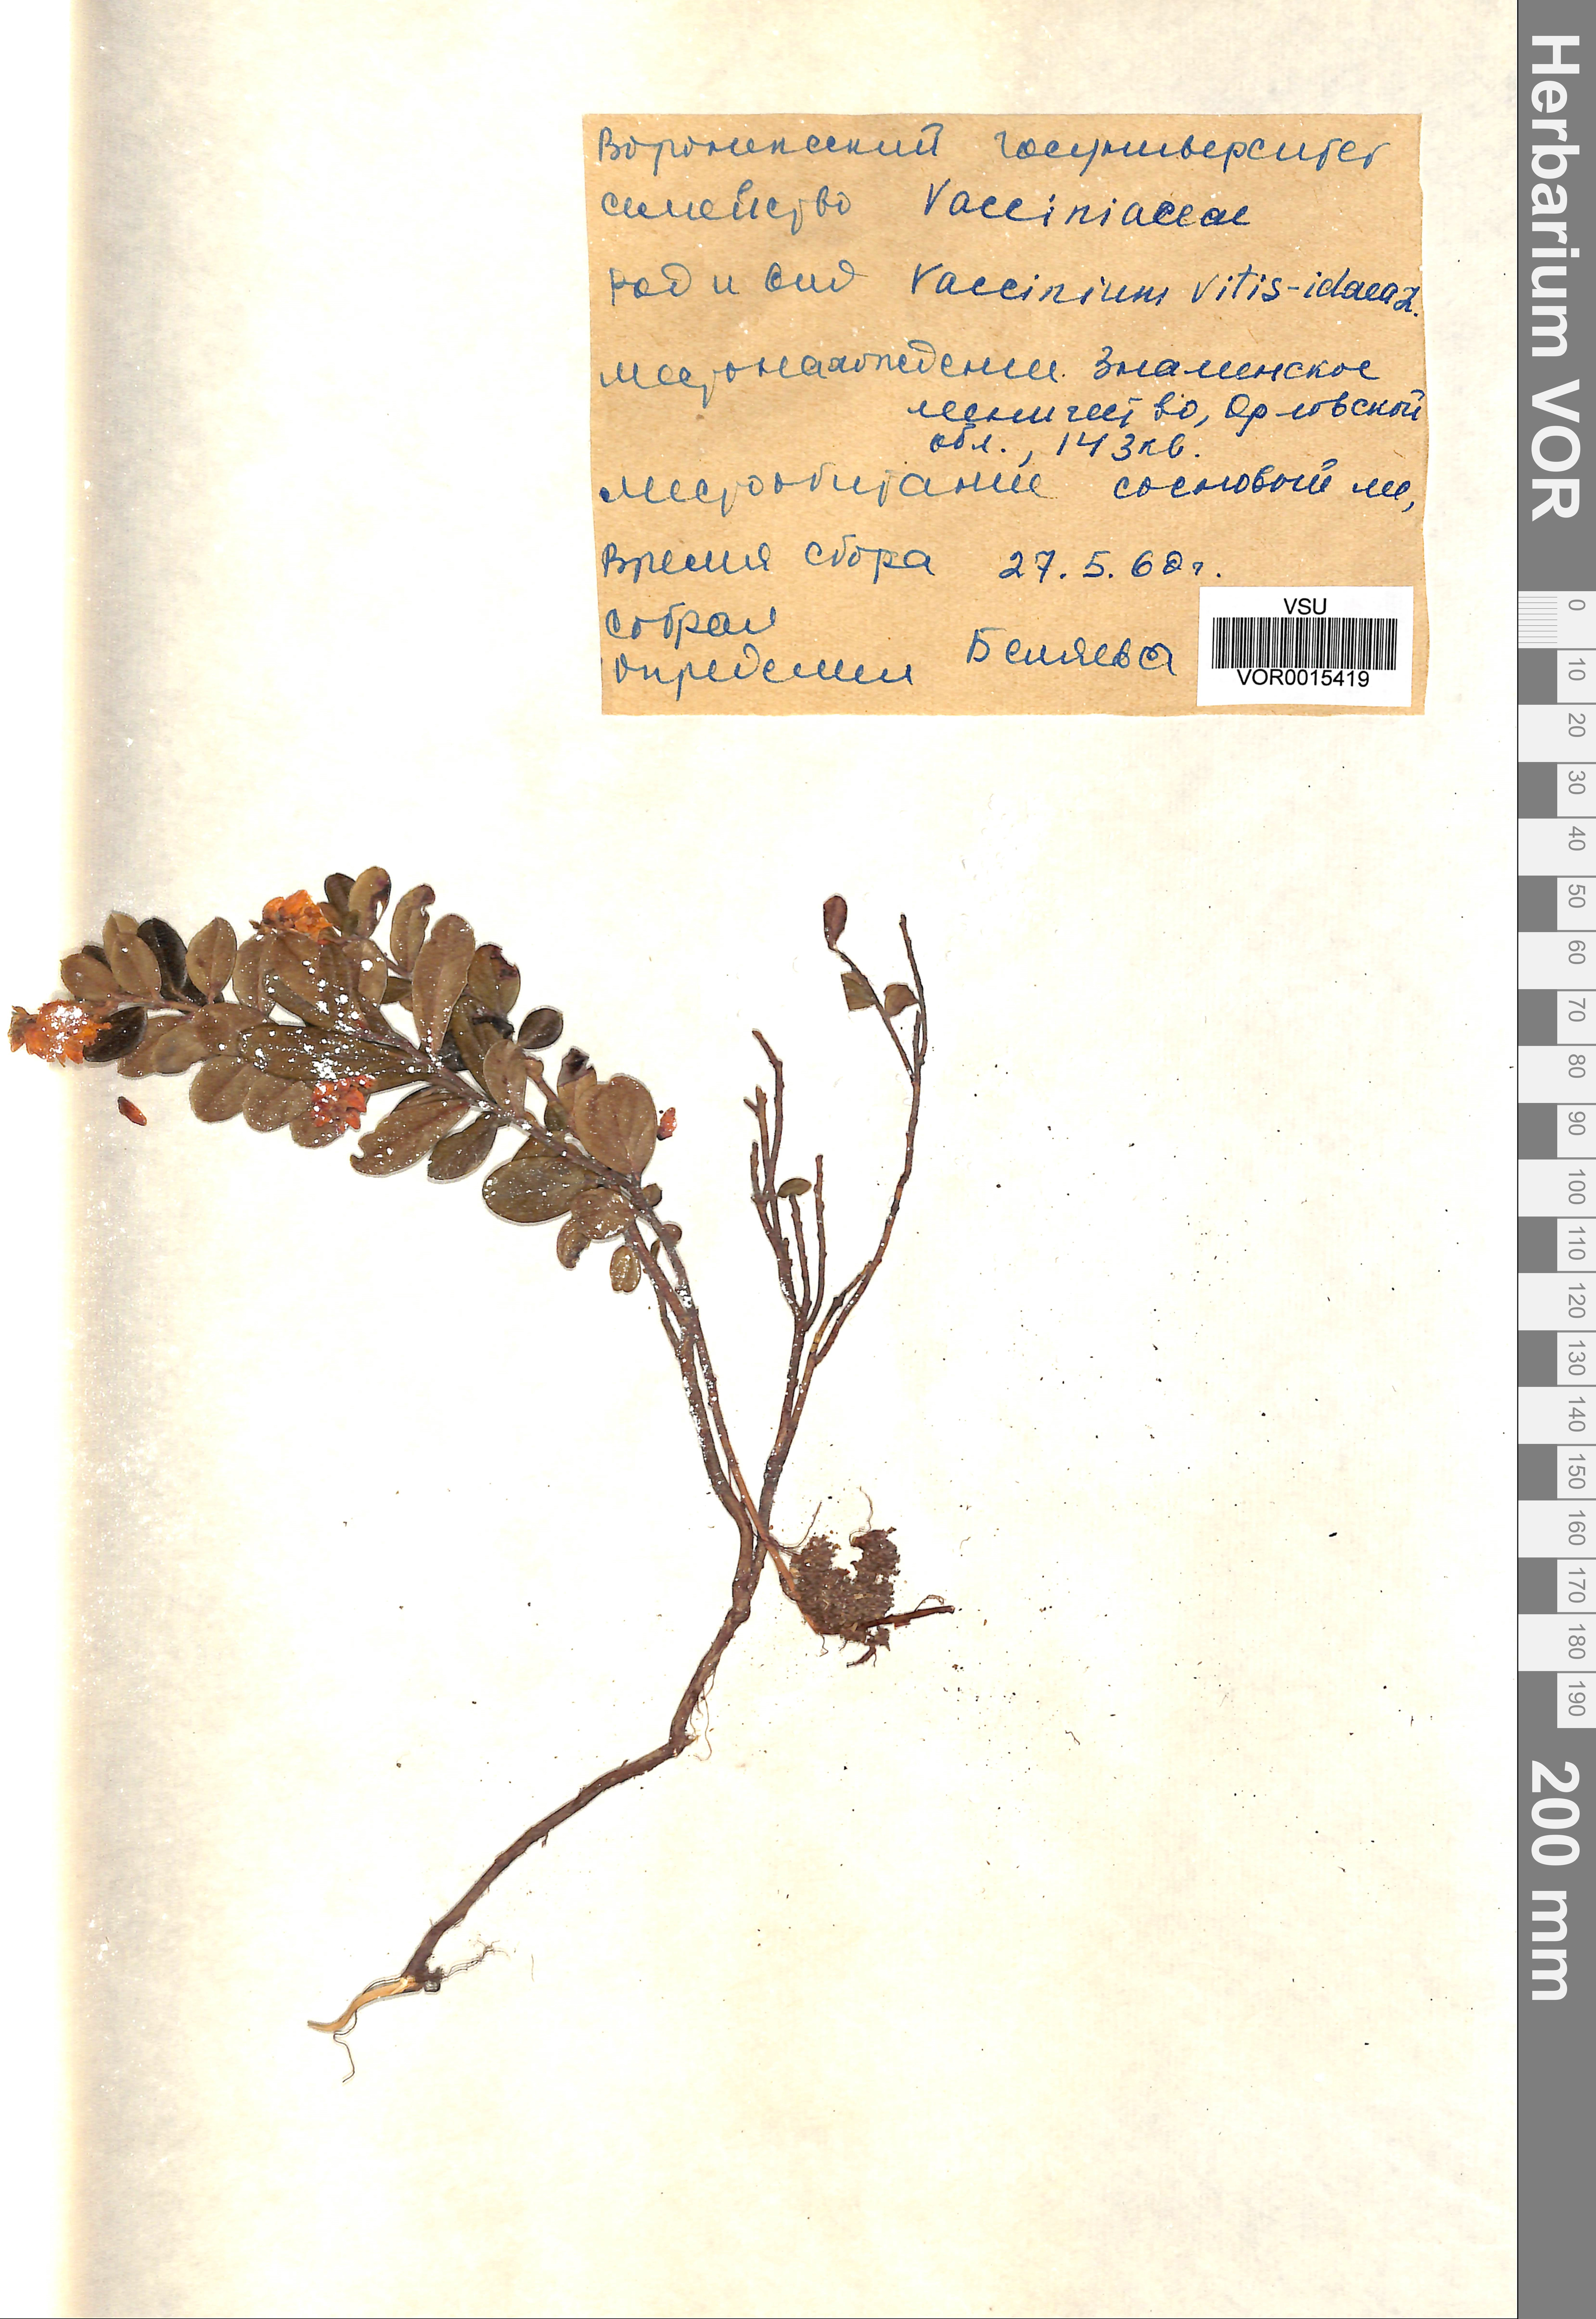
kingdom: Plantae
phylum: Tracheophyta
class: Magnoliopsida
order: Ericales
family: Ericaceae
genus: Vaccinium
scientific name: Vaccinium vitis-idaea
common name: Cowberry
